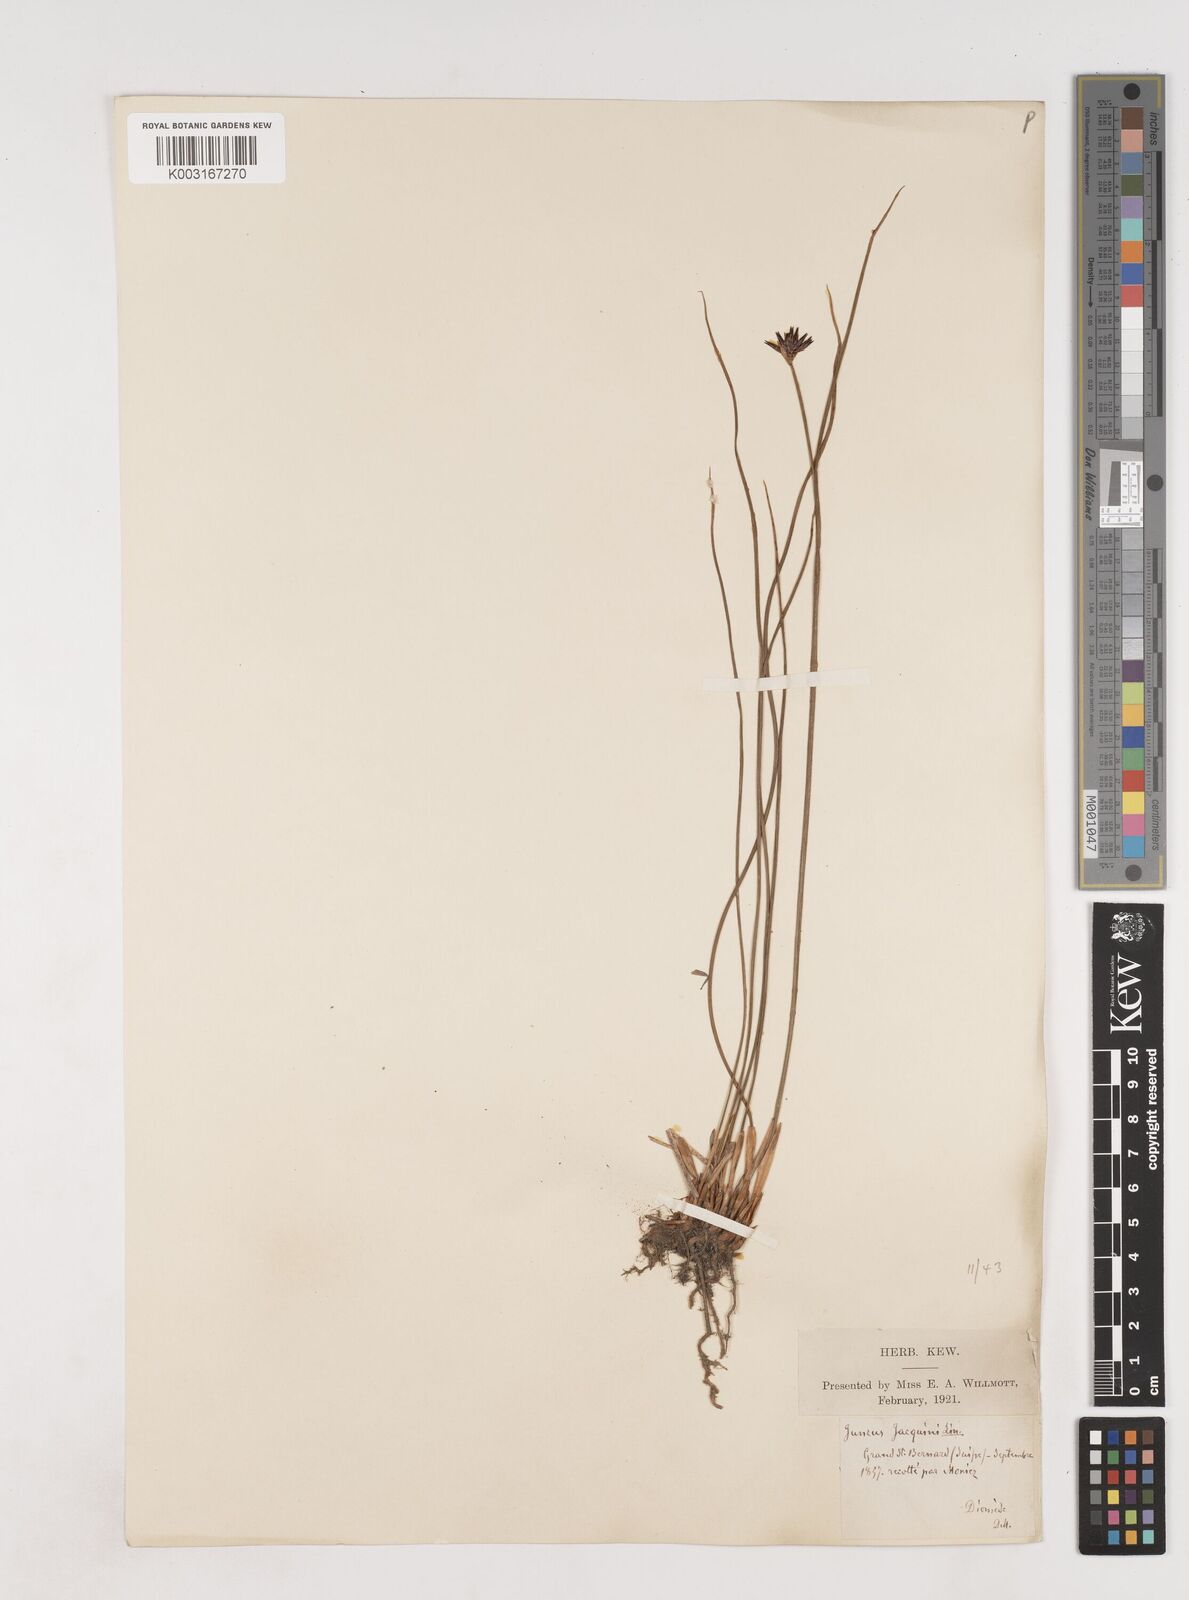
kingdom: Plantae
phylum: Tracheophyta
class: Liliopsida
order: Poales
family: Juncaceae
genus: Juncus
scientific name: Juncus jacquinii
